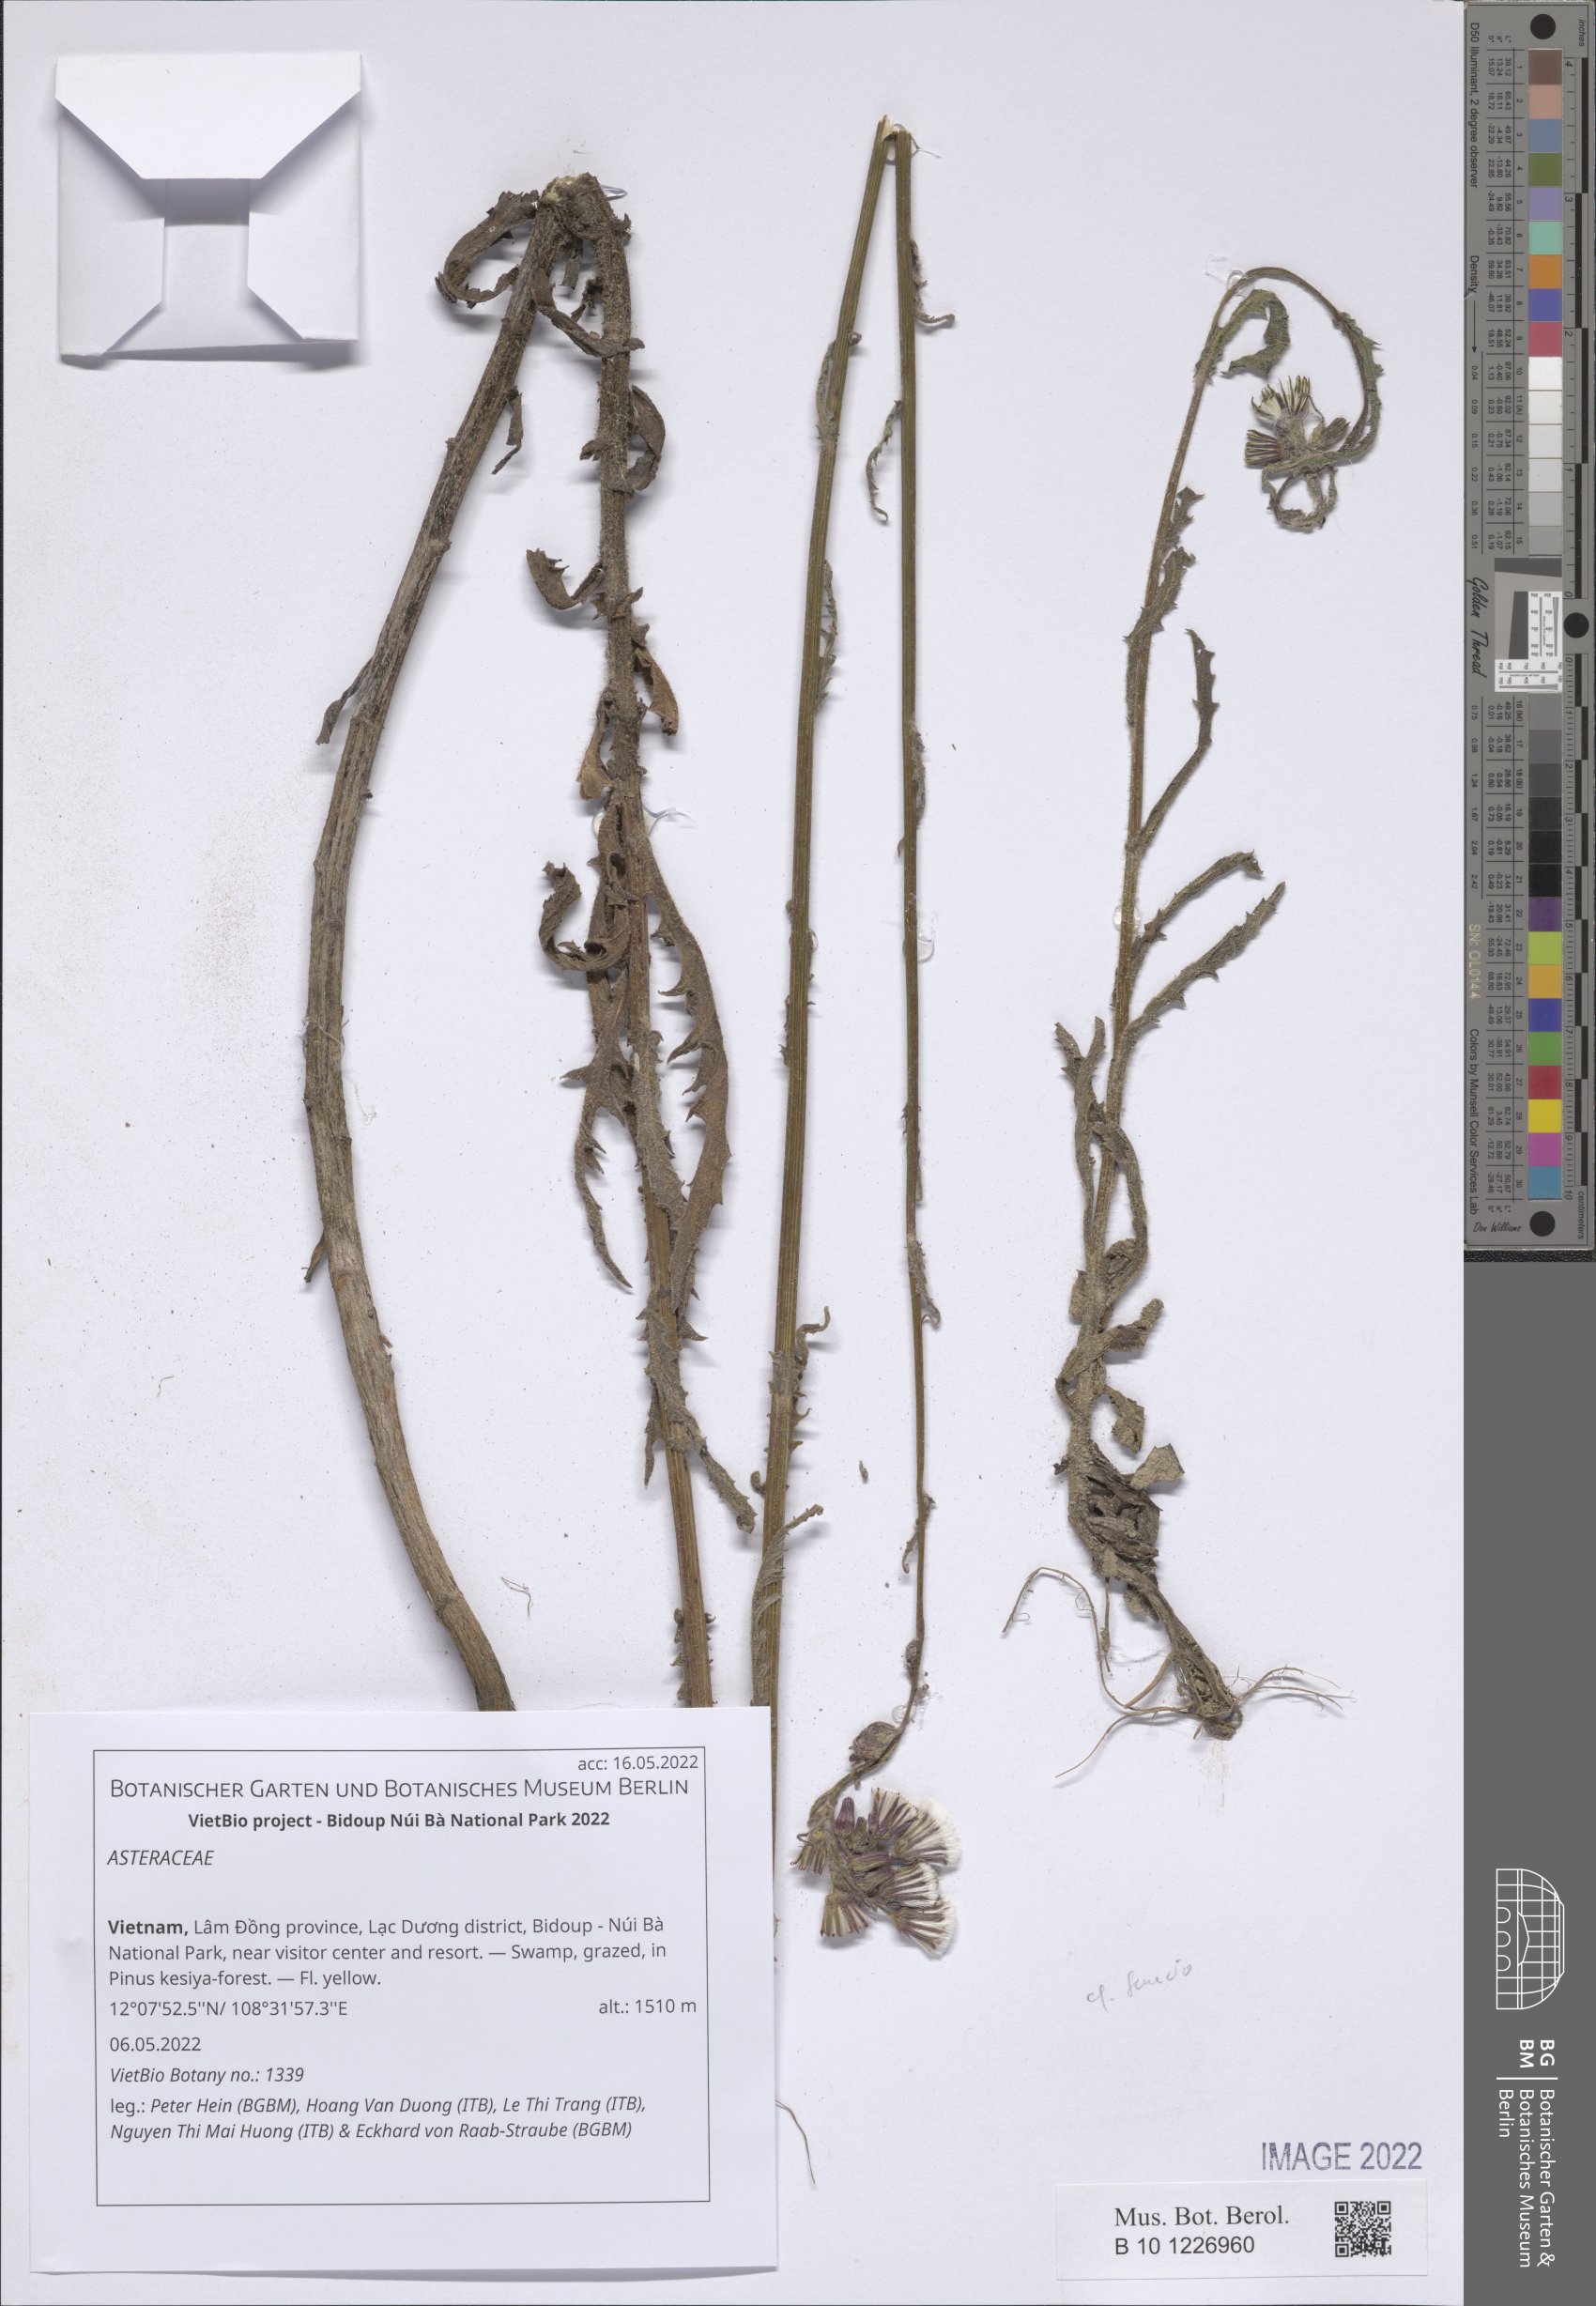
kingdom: Plantae
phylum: Tracheophyta
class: Magnoliopsida
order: Asterales
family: Asteraceae
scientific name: Asteraceae
